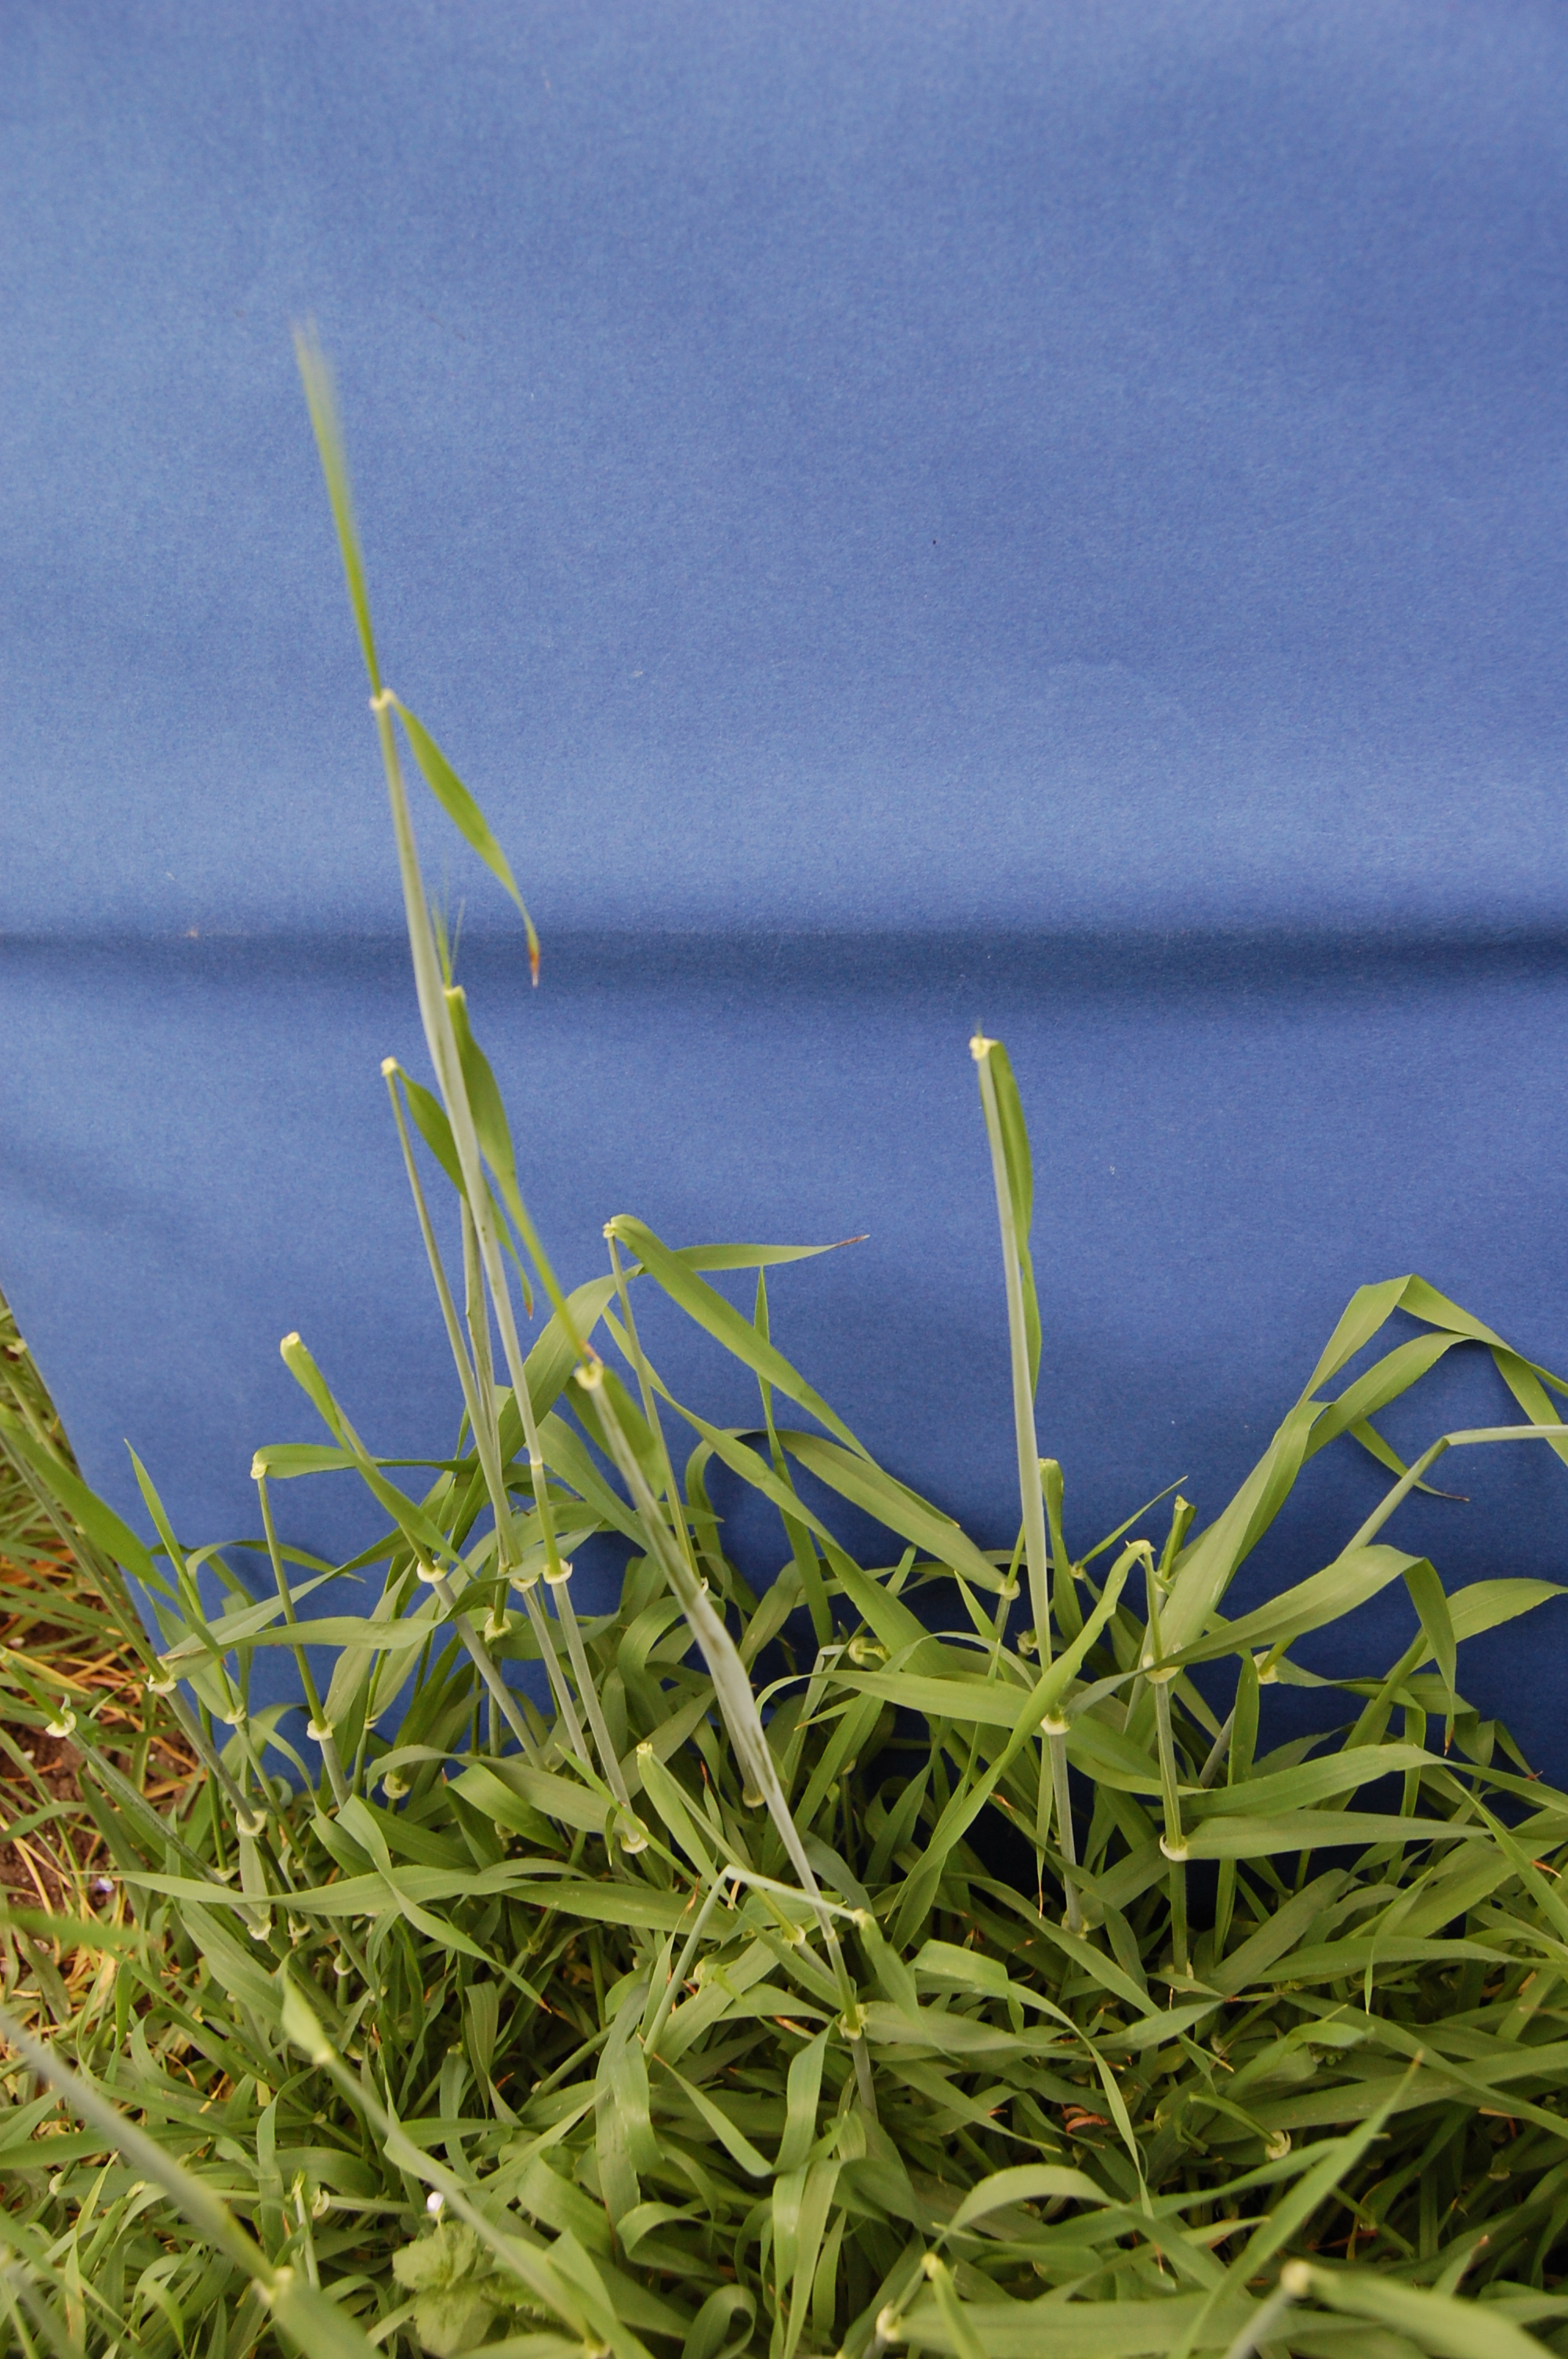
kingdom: Plantae
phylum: Tracheophyta
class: Liliopsida
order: Poales
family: Poaceae
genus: Hordeum
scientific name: Hordeum vulgare
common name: Common barley
